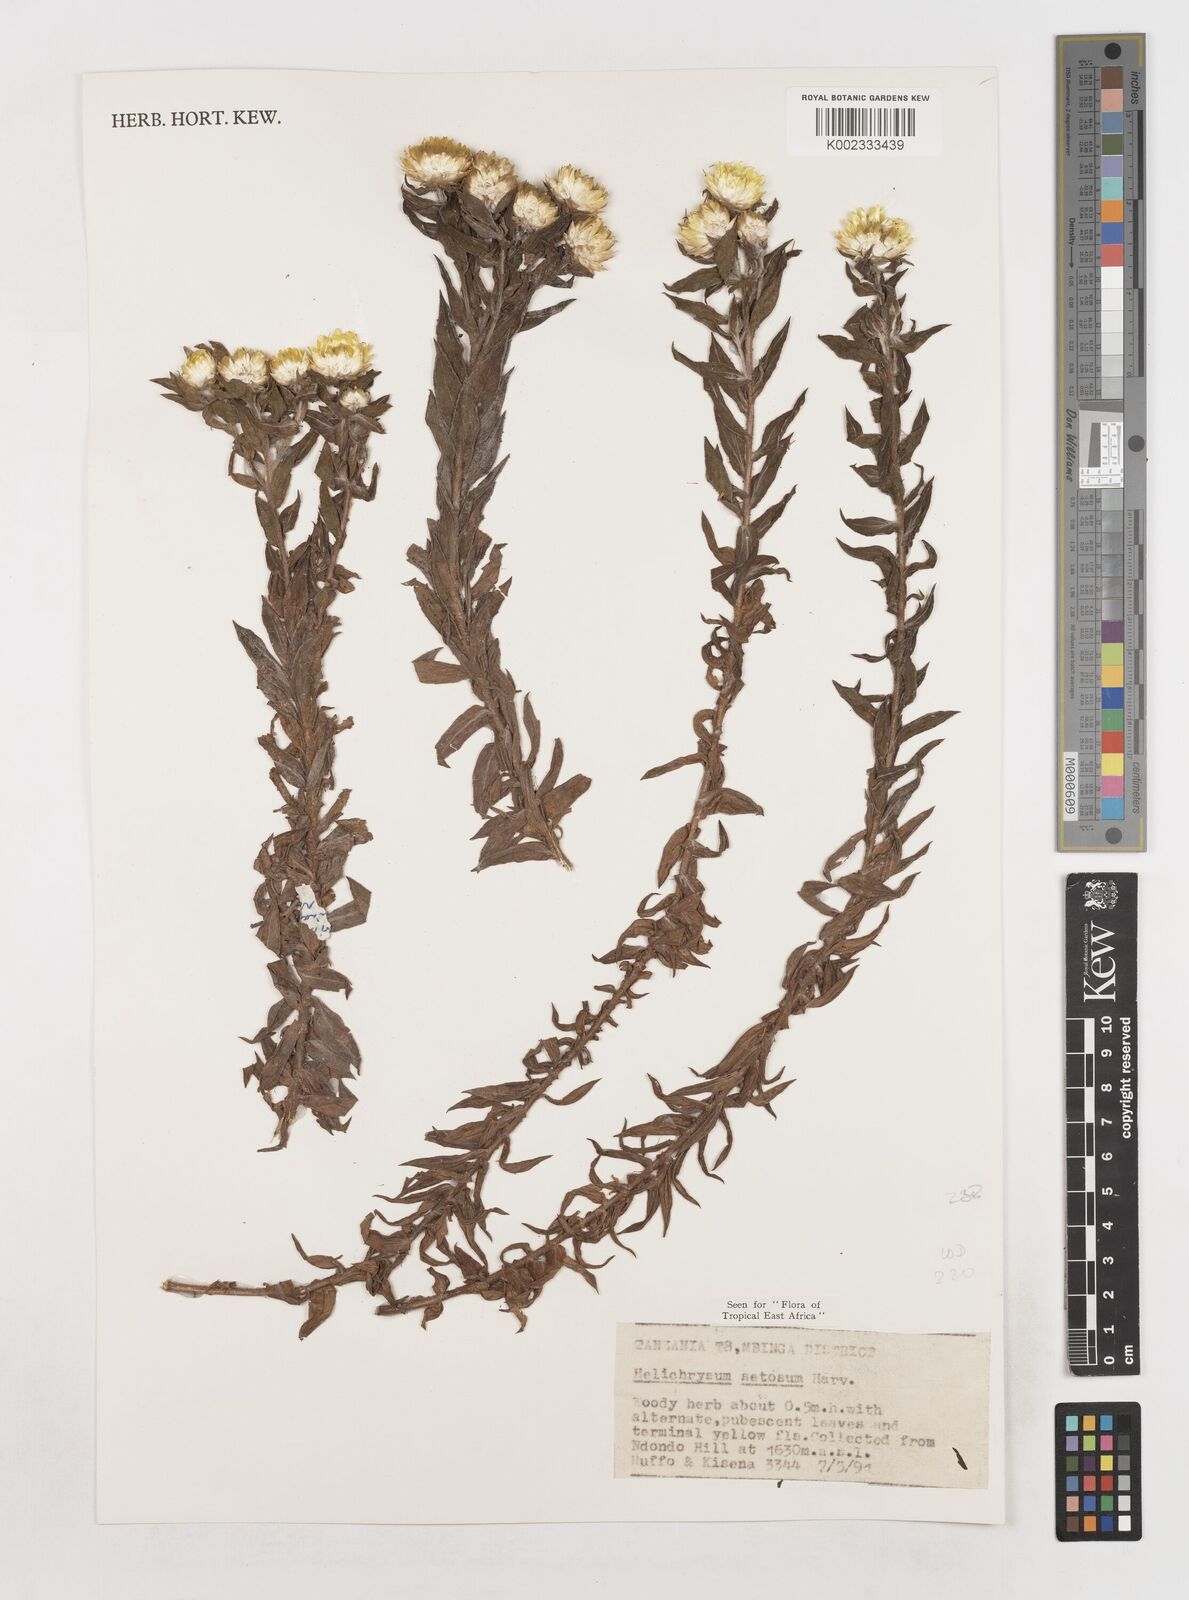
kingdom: Plantae
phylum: Tracheophyta
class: Magnoliopsida
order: Asterales
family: Asteraceae
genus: Helichrysum
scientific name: Helichrysum setosum
